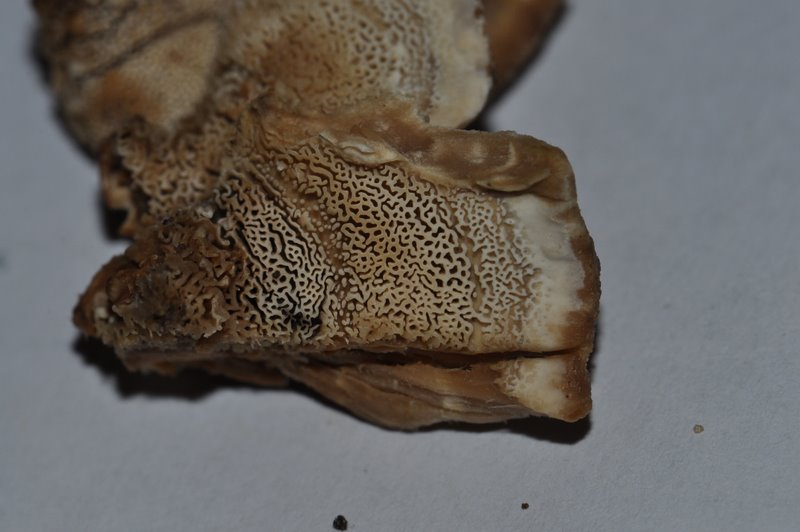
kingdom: Fungi
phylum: Basidiomycota
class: Agaricomycetes
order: Polyporales
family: Phanerochaetaceae
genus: Bjerkandera
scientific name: Bjerkandera fumosa
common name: grågul sodporesvamp
